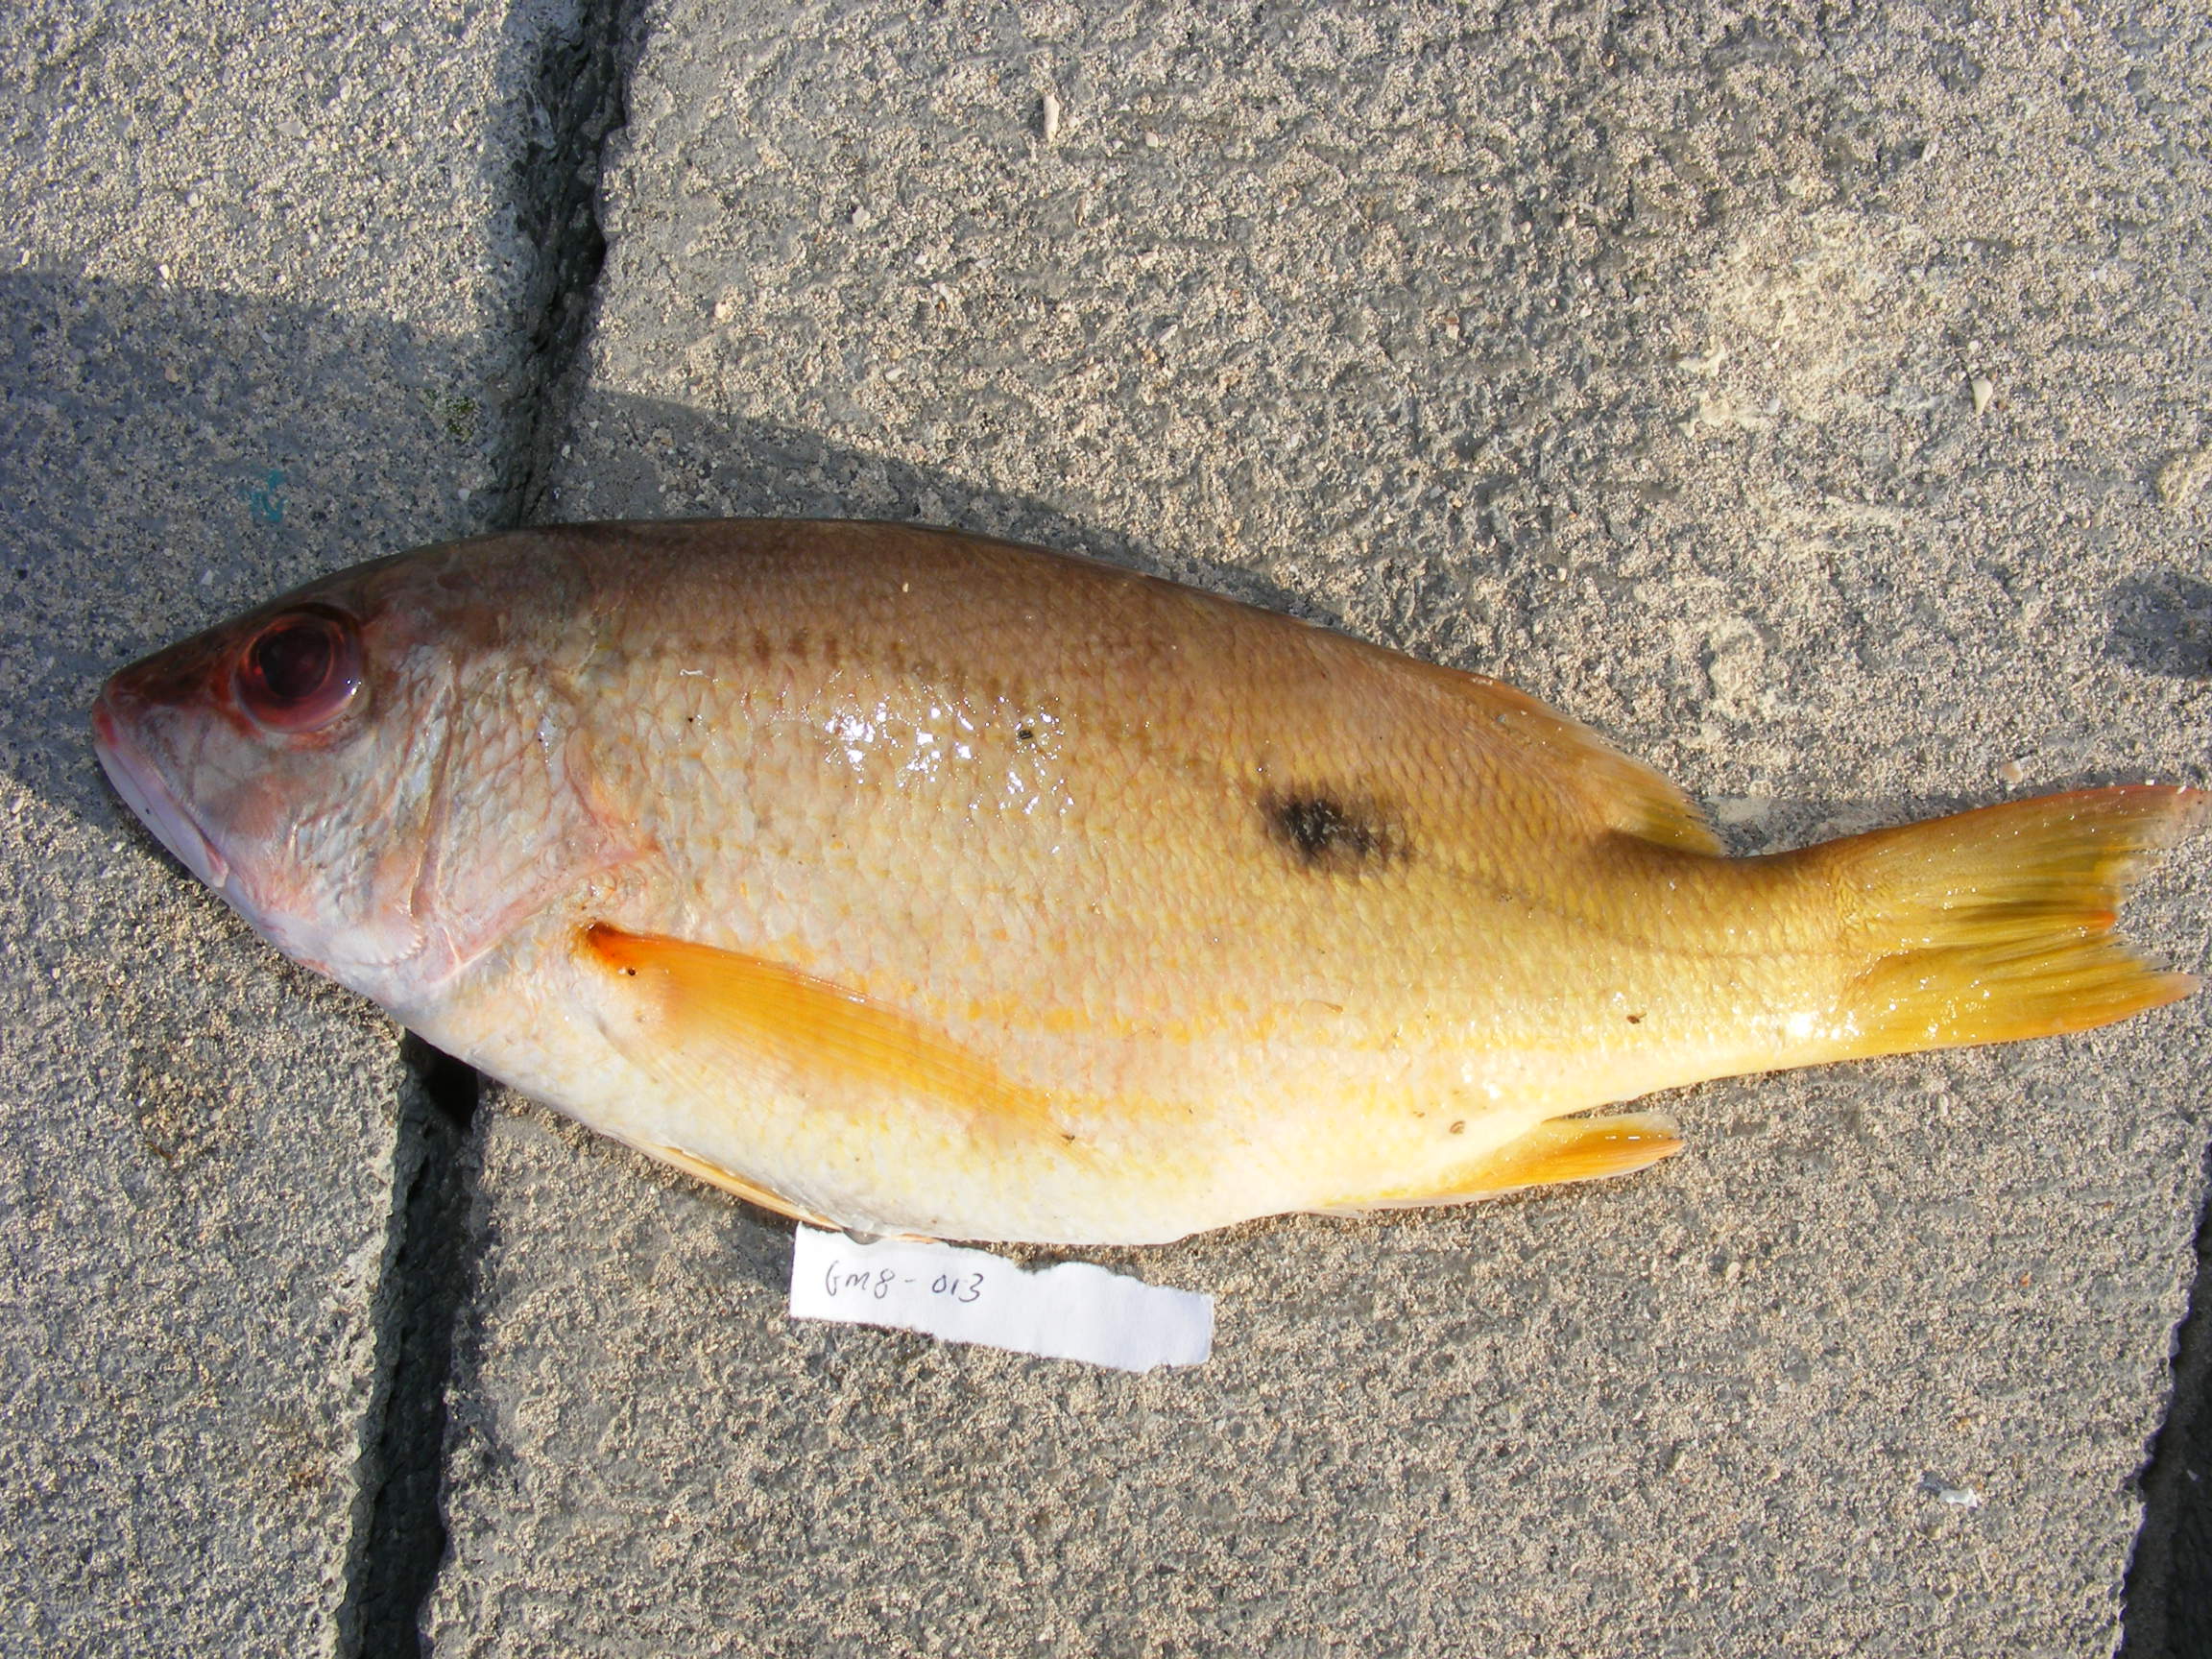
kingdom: Animalia
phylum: Chordata
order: Perciformes
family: Lutjanidae
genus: Lutjanus
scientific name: Lutjanus fulviflamma
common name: Blackspot snapper
